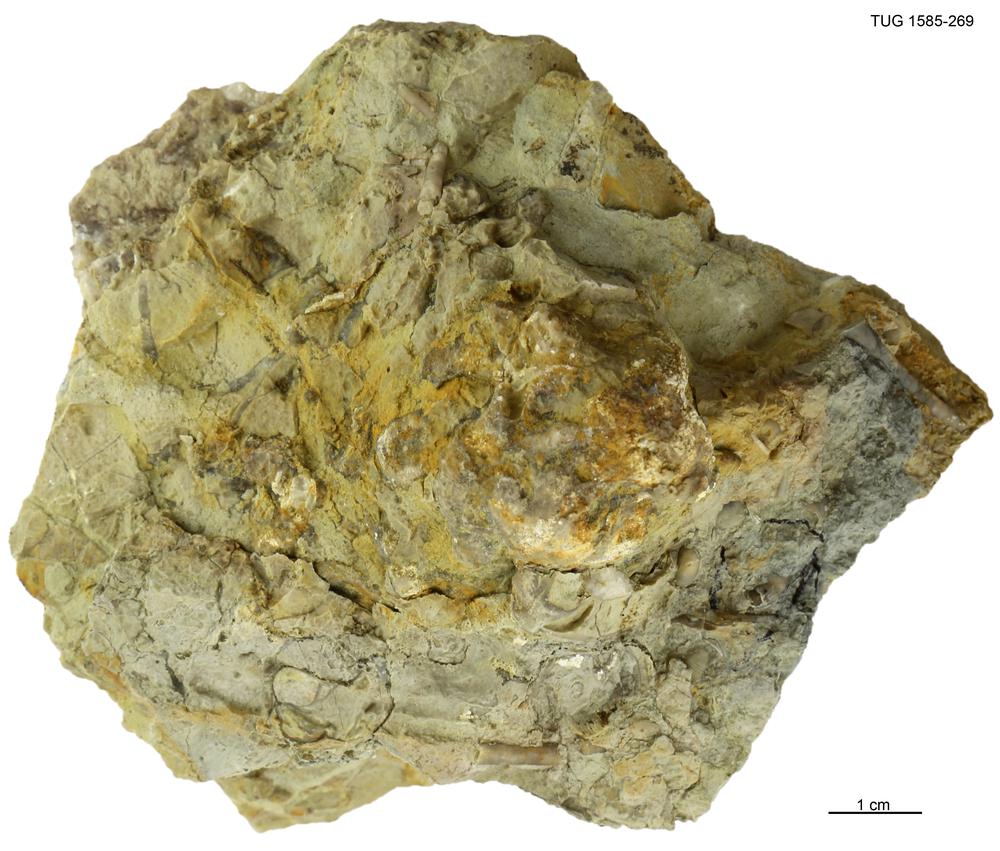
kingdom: Animalia
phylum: Cnidaria
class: Anthozoa
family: Auloporidae
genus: Eofletcheria
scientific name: Eofletcheria orvikui
